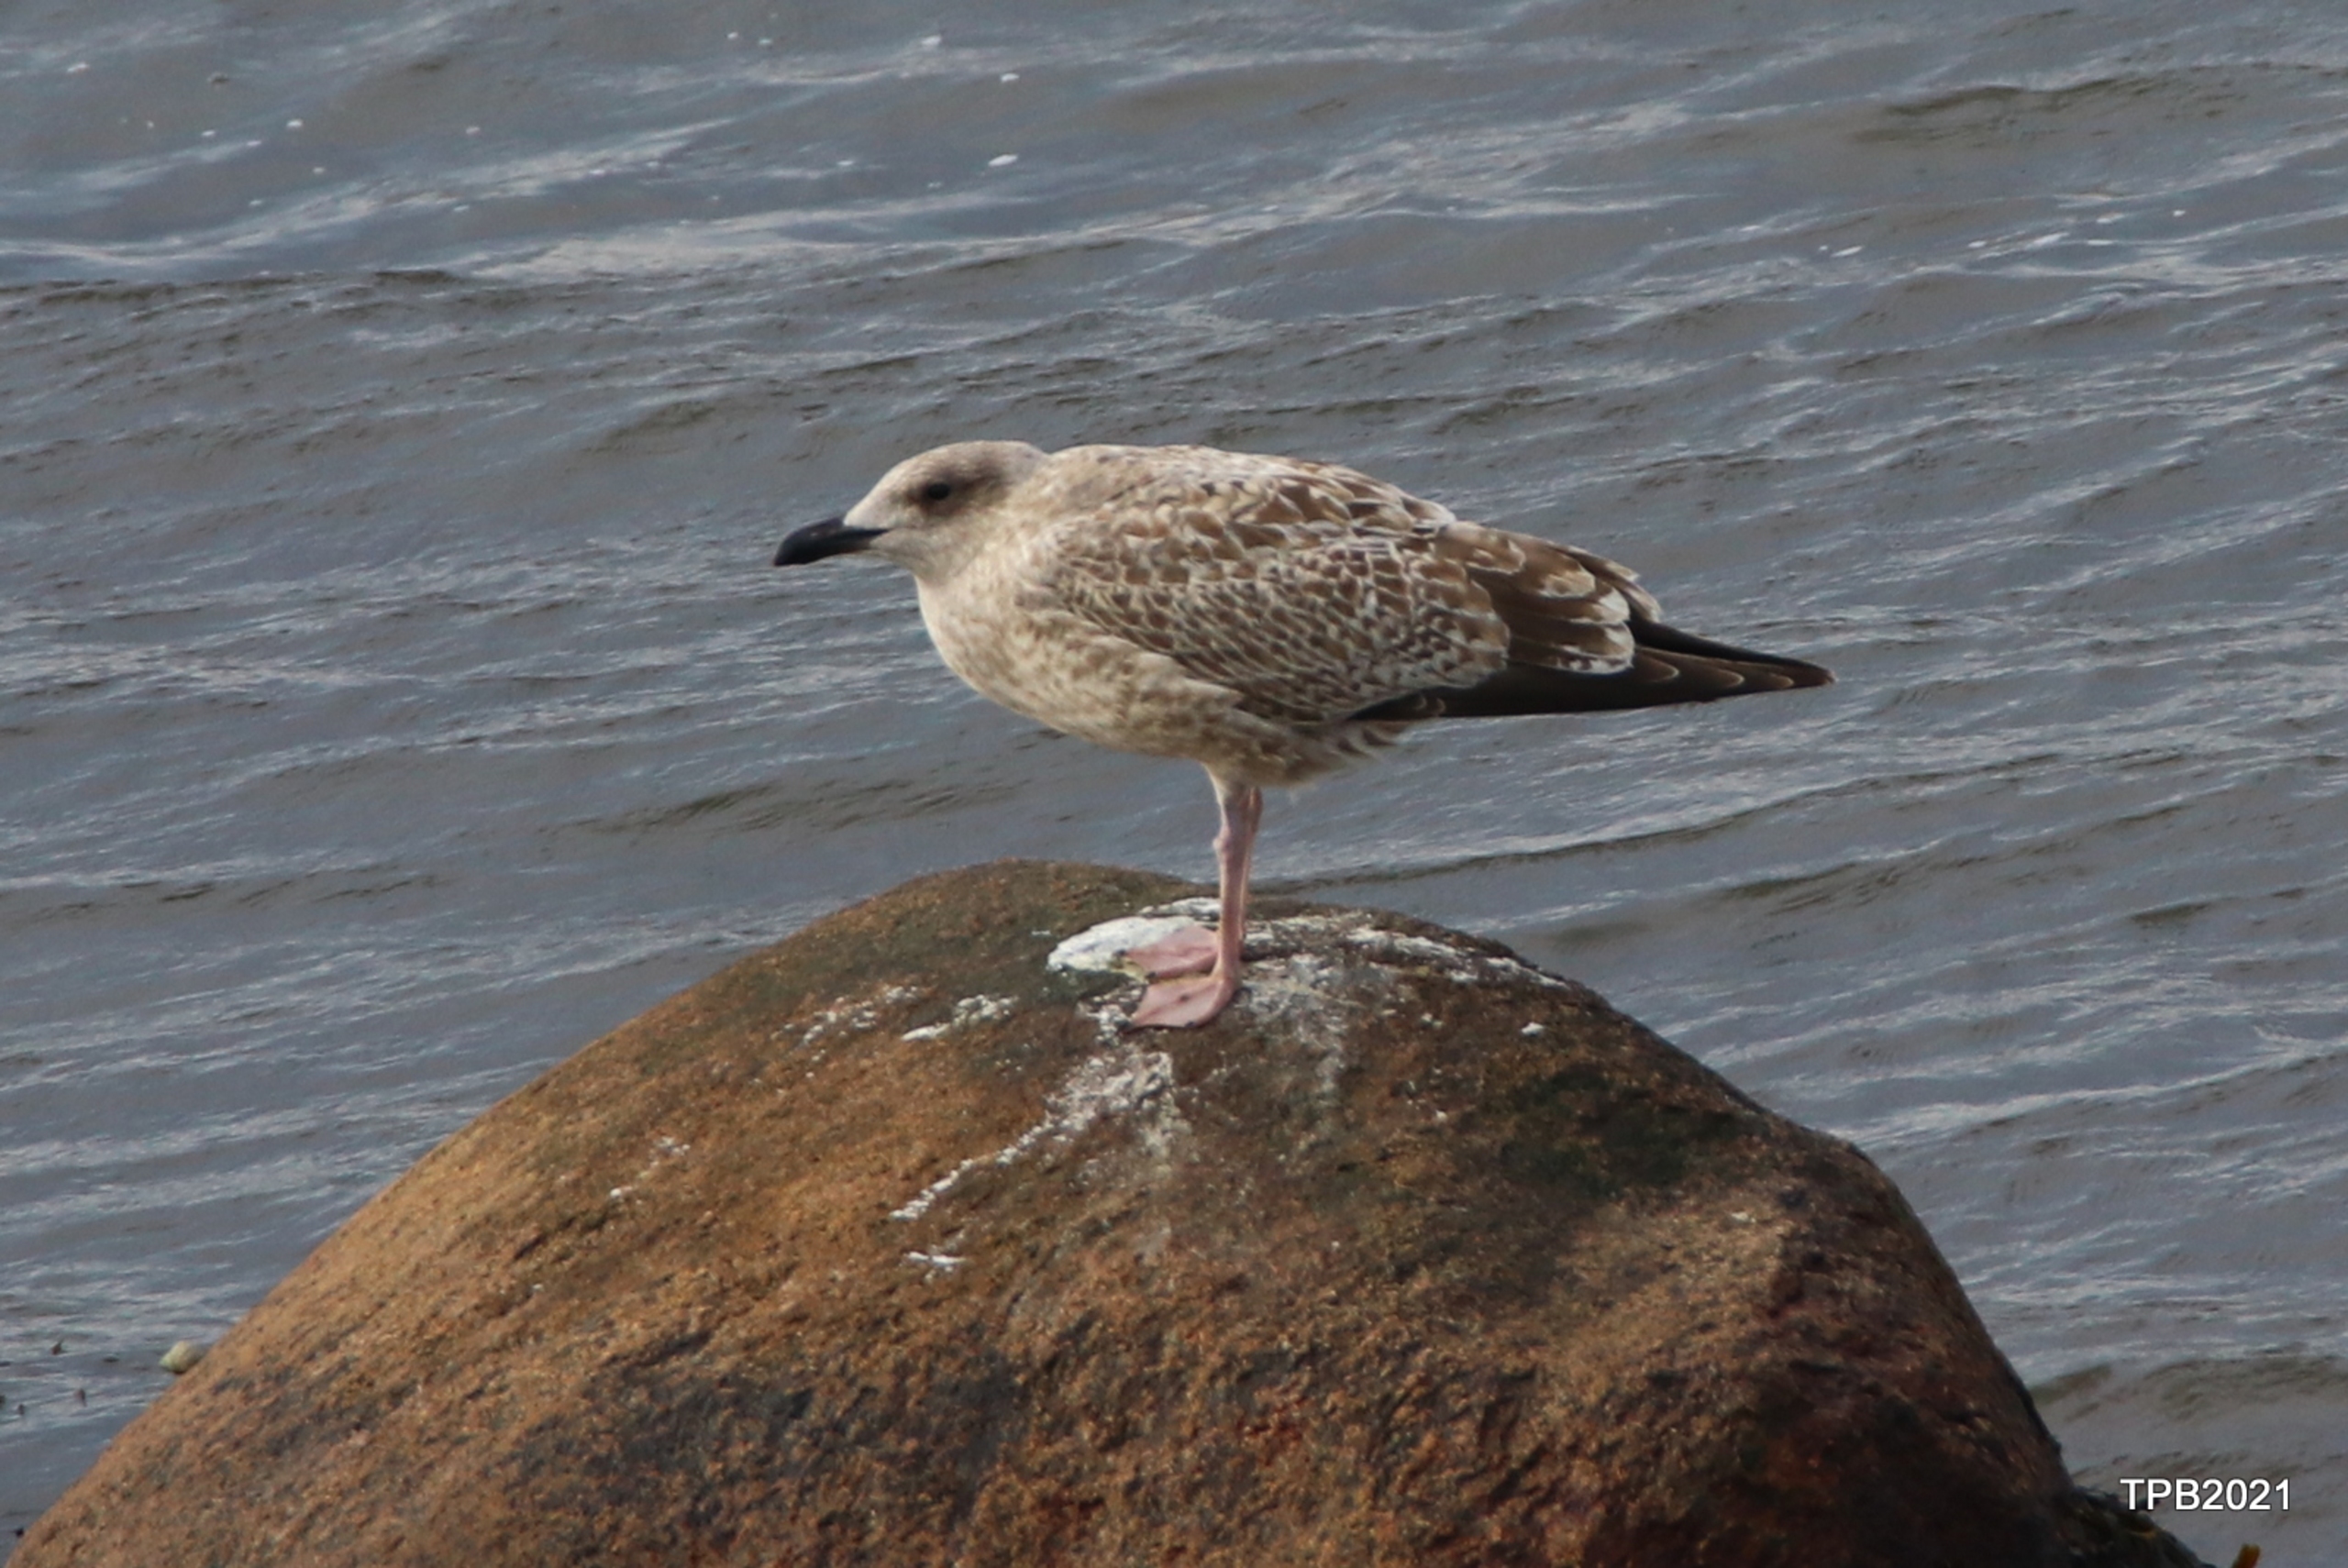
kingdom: Animalia
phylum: Chordata
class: Aves
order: Charadriiformes
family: Laridae
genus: Larus
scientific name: Larus argentatus
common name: Sølvmåge
